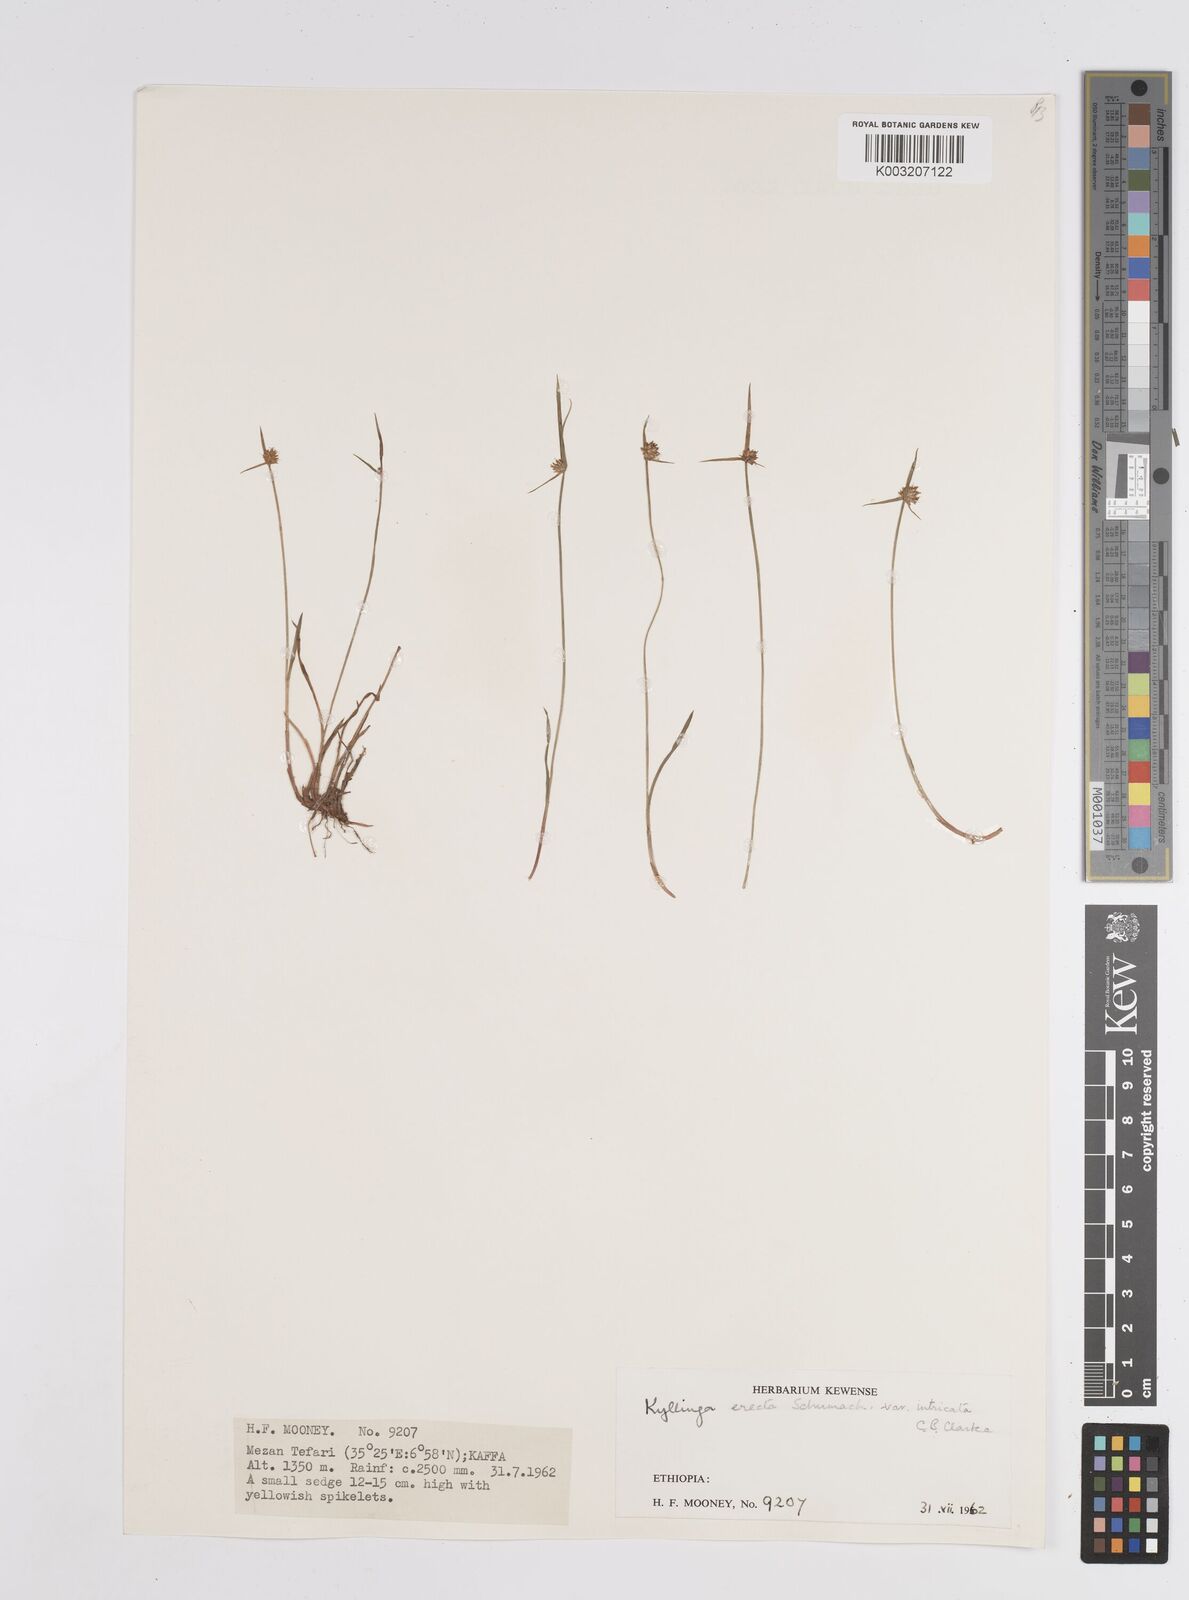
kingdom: Plantae
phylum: Tracheophyta
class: Liliopsida
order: Poales
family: Cyperaceae
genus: Cyperus
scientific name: Cyperus
